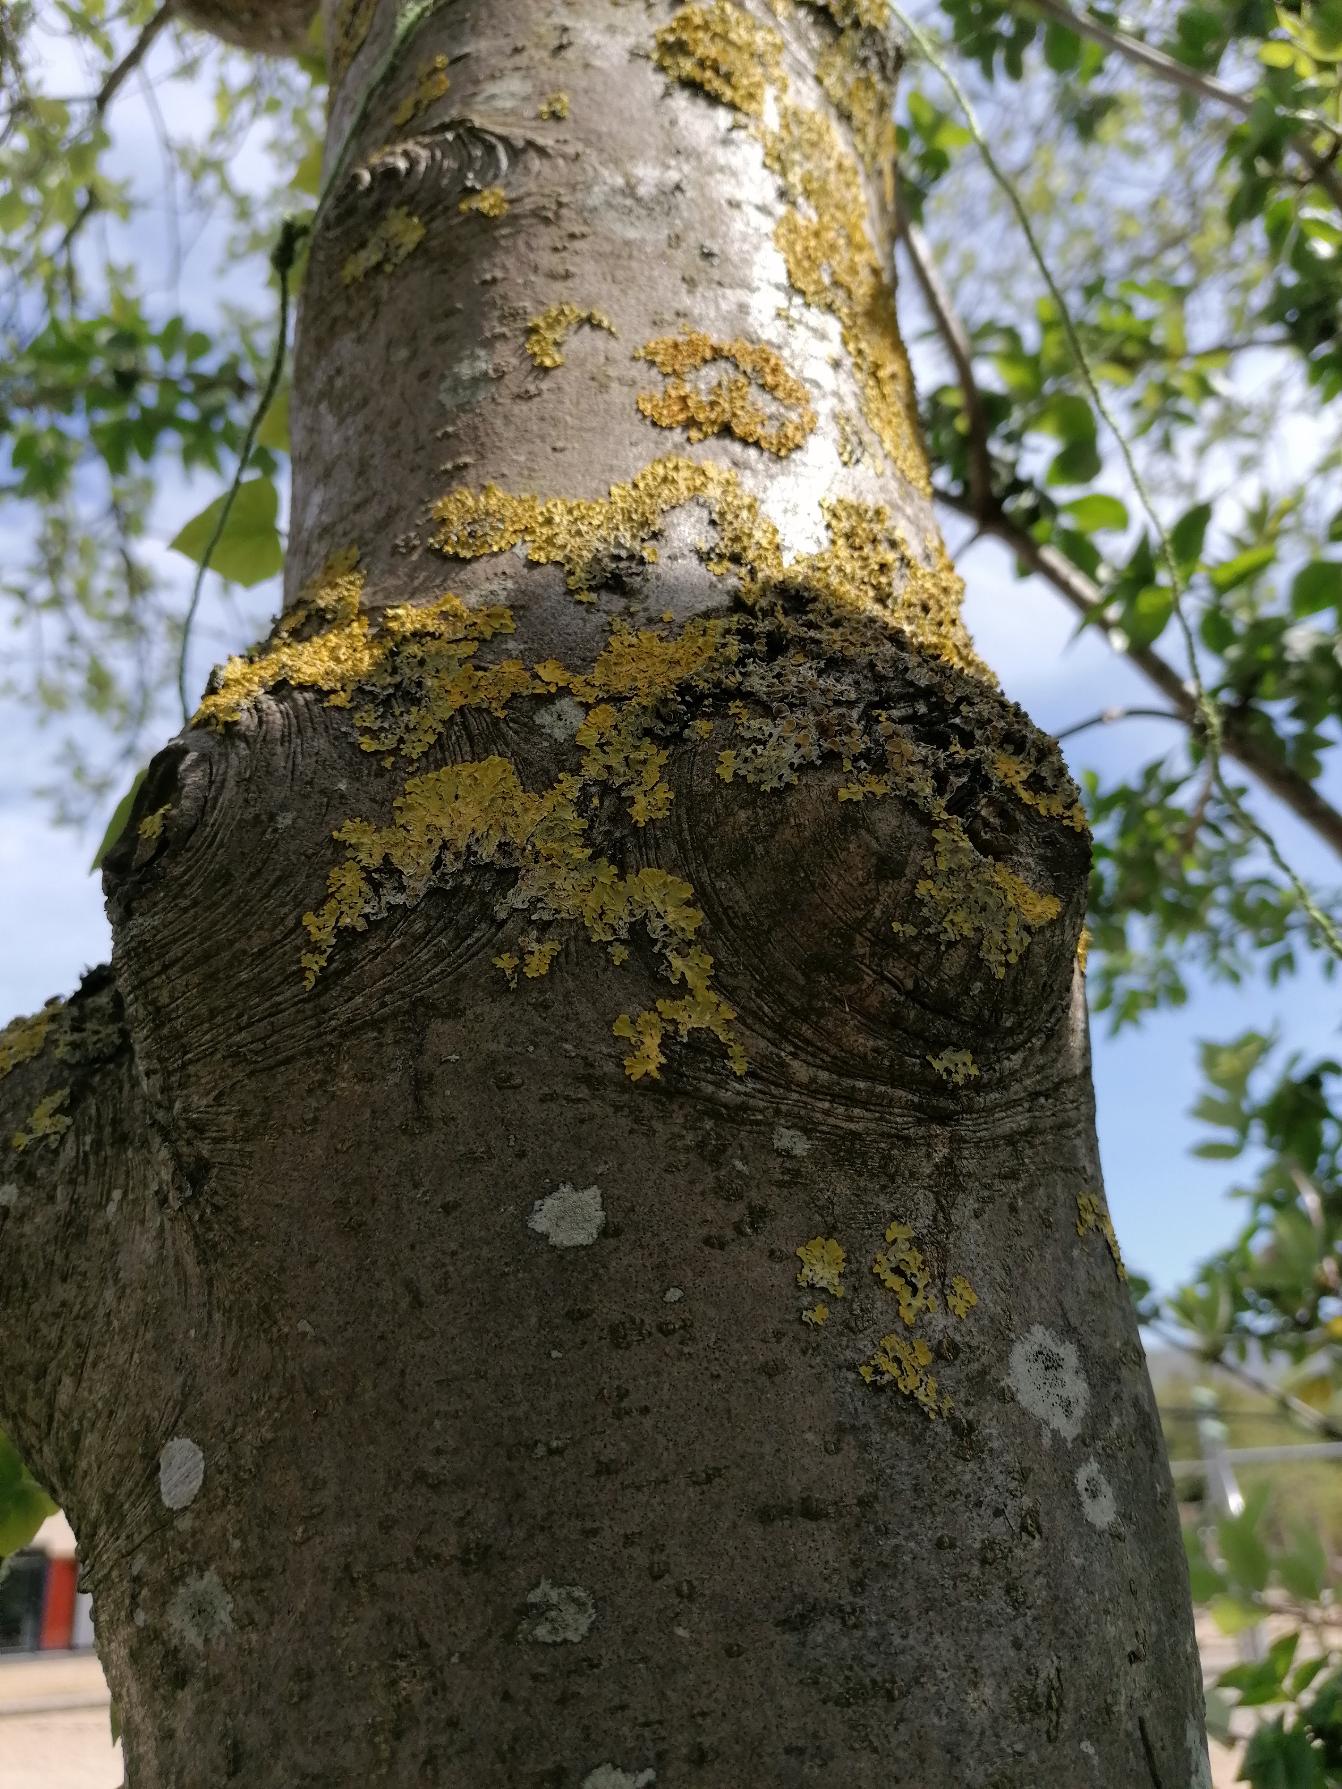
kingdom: Fungi
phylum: Ascomycota
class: Lecanoromycetes
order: Teloschistales
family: Teloschistaceae
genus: Xanthoria
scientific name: Xanthoria parietina
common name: Almindelig væggelav
